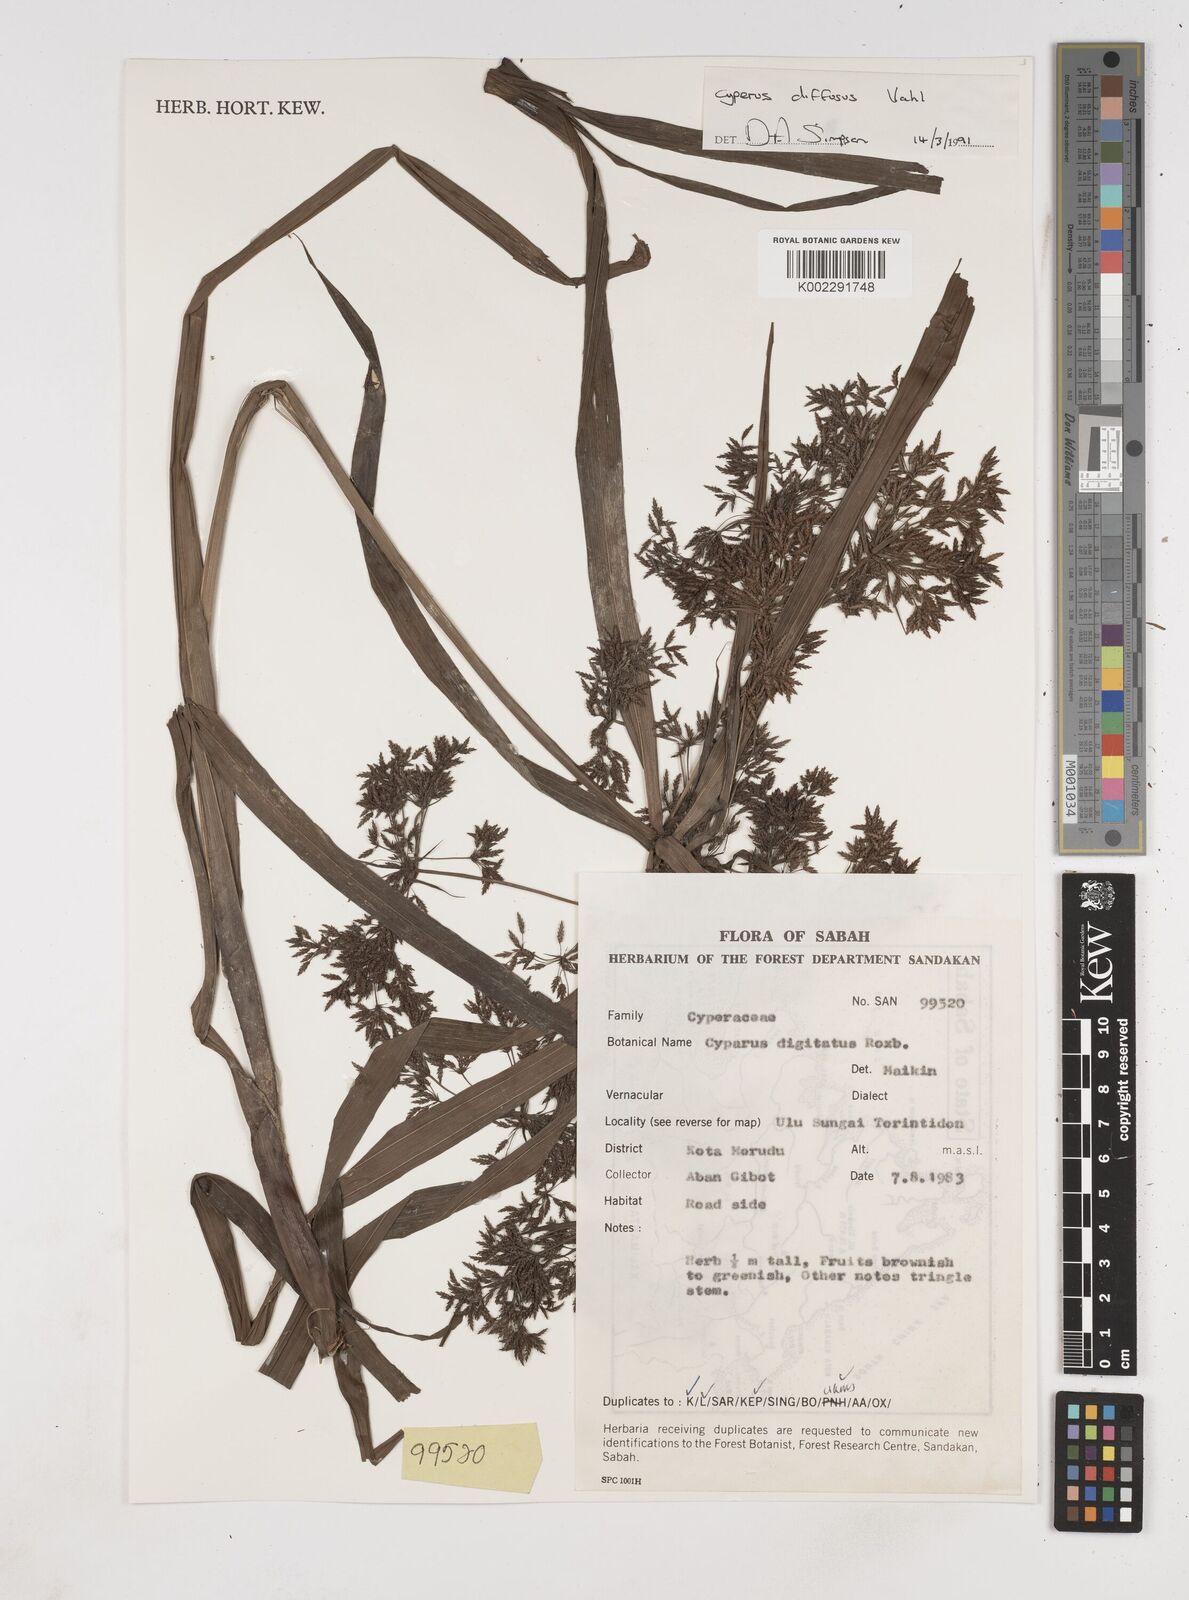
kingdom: Plantae
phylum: Tracheophyta
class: Liliopsida
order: Poales
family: Cyperaceae
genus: Cyperus
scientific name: Cyperus diffusus
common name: Dwarf umbrella grass
